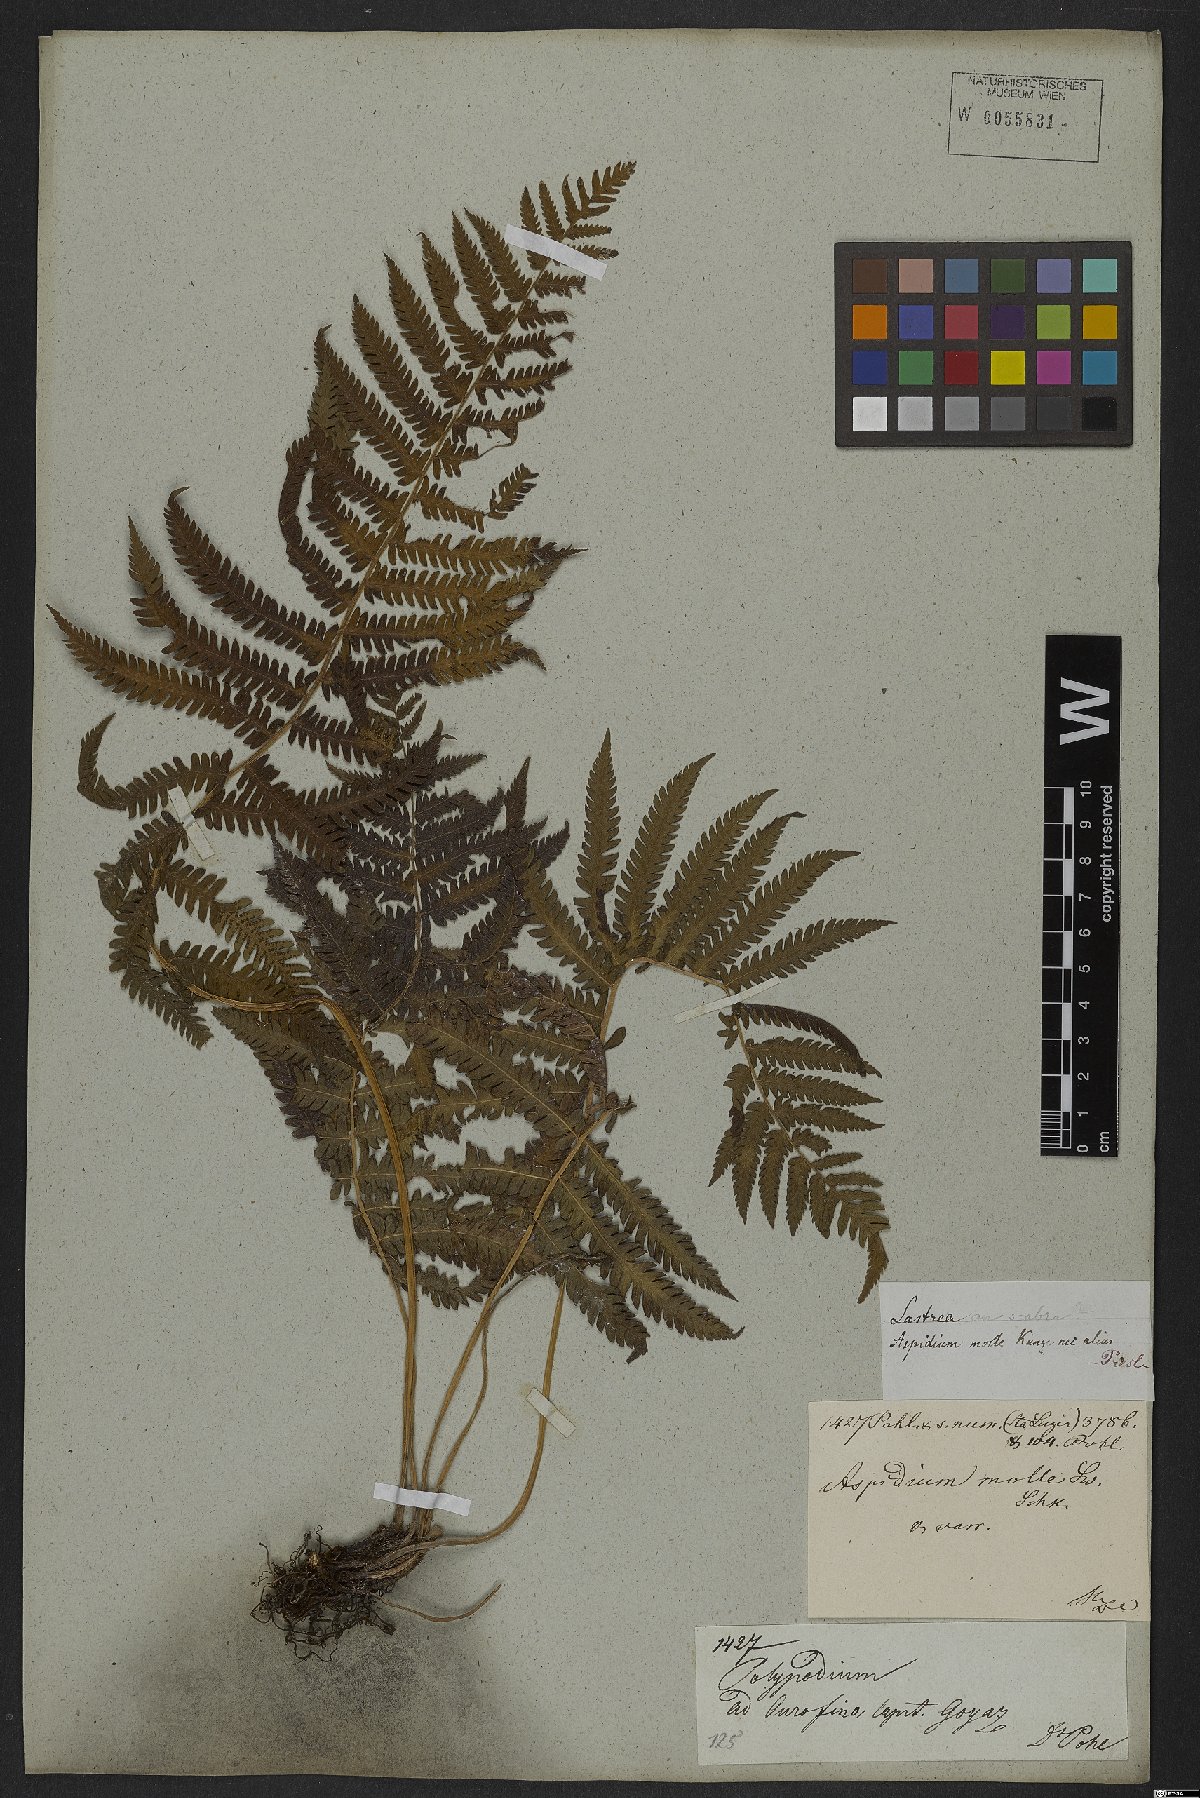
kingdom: Plantae
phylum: Tracheophyta
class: Polypodiopsida
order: Polypodiales
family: Thelypteridaceae
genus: Christella
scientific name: Christella
